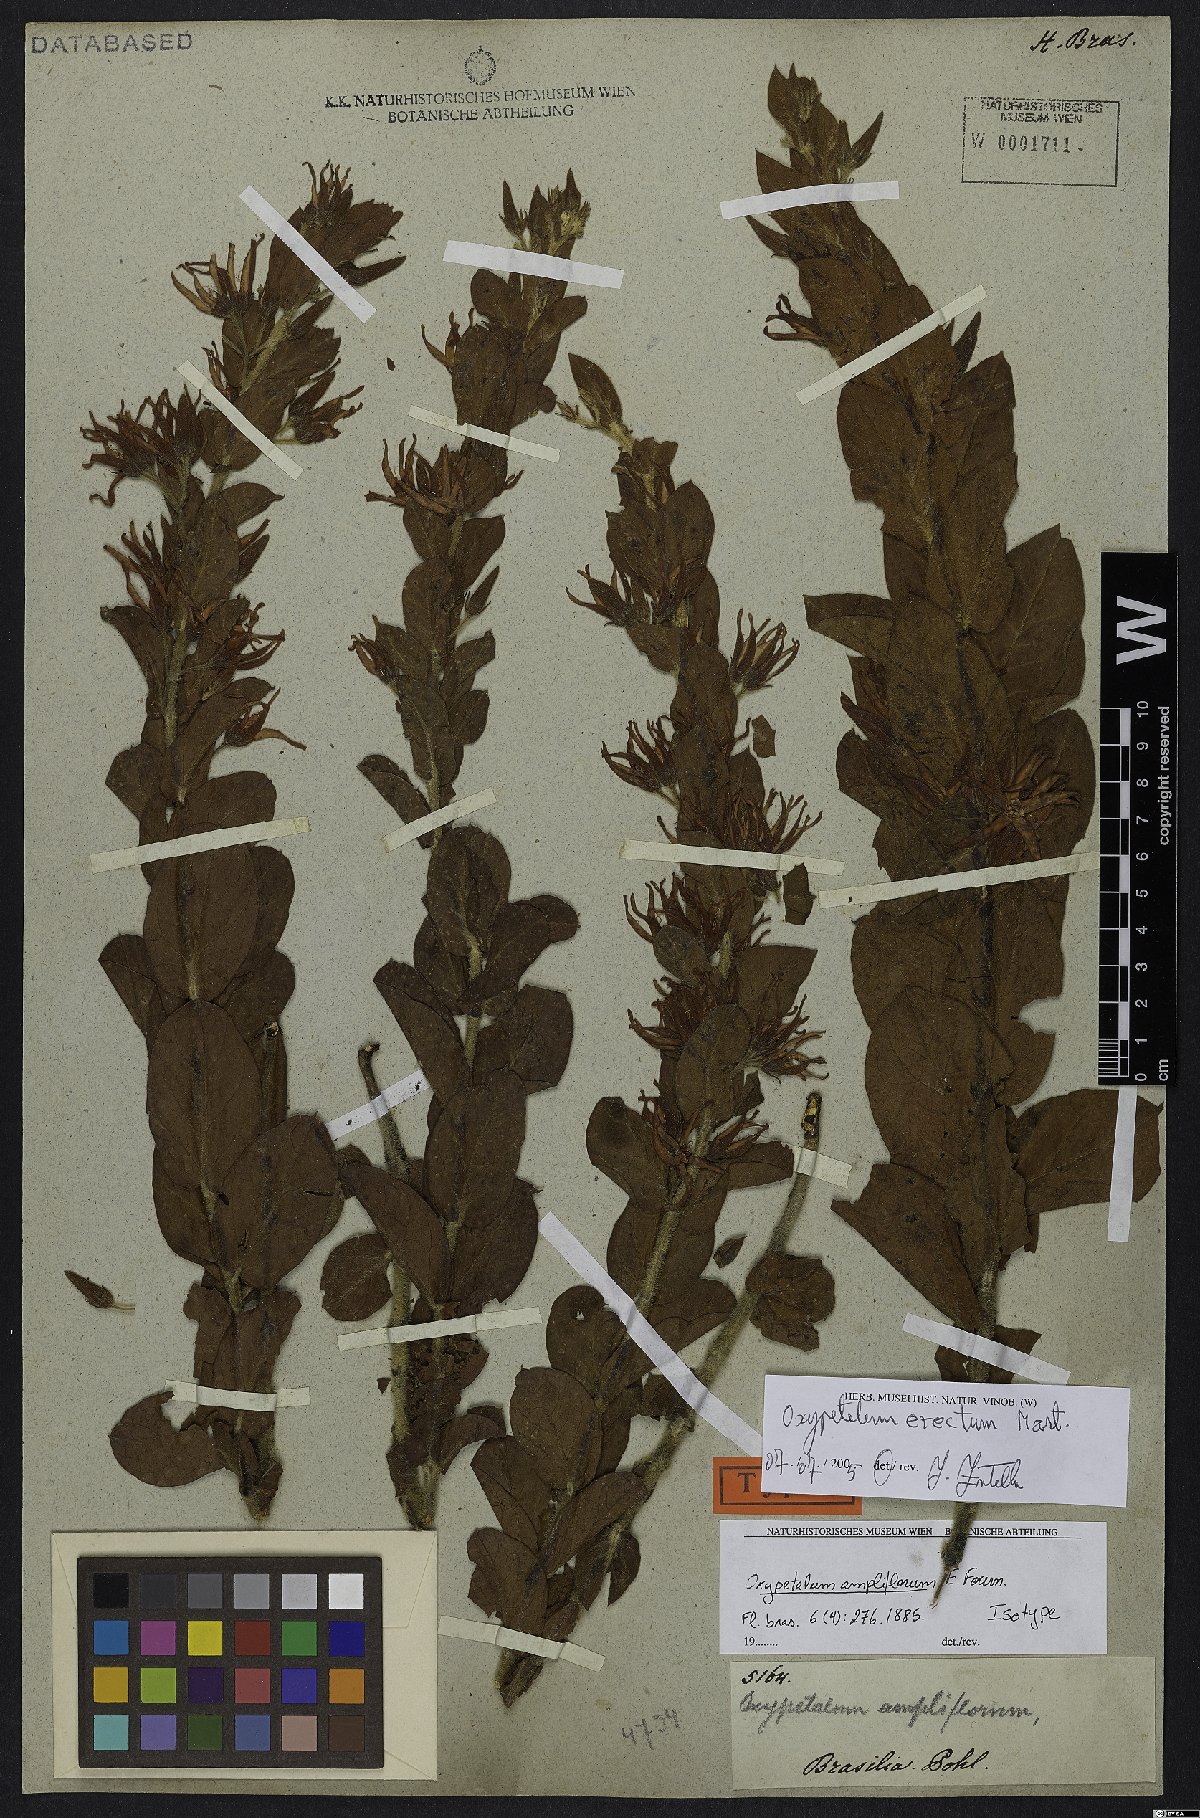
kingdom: Plantae
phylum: Tracheophyta
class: Magnoliopsida
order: Gentianales
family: Apocynaceae
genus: Oxypetalum
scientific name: Oxypetalum erectum
